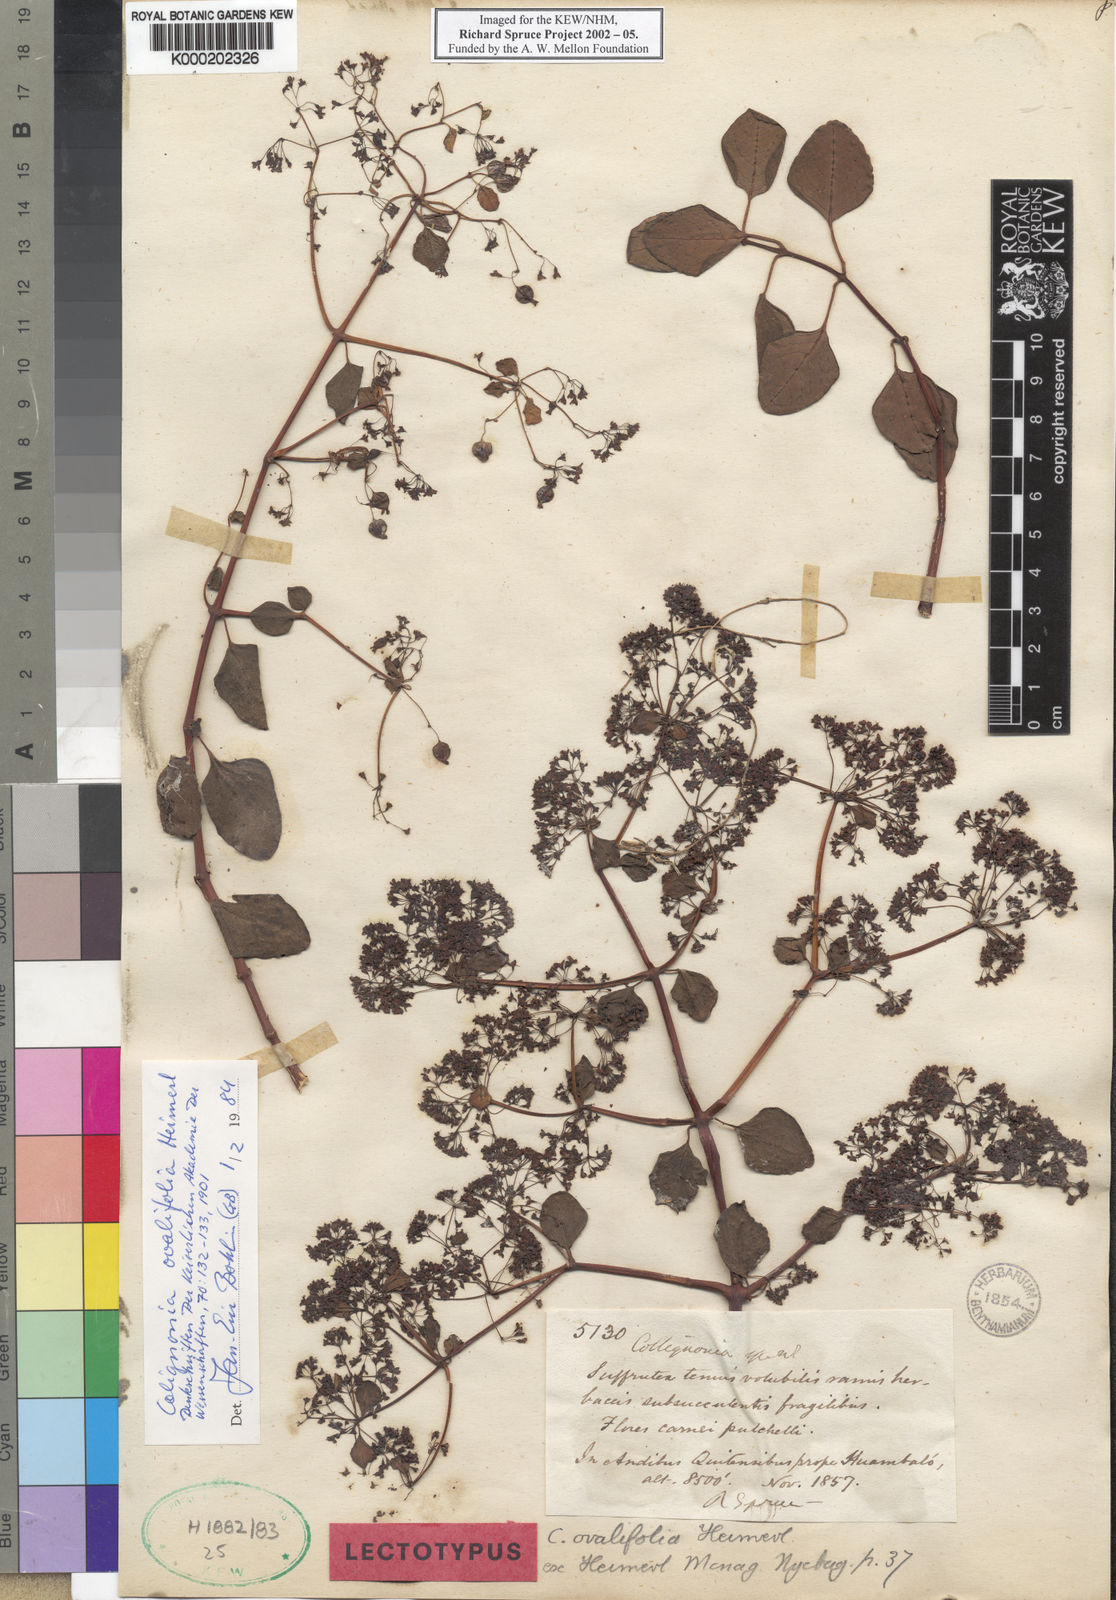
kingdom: Plantae
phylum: Tracheophyta
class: Magnoliopsida
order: Caryophyllales
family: Nyctaginaceae
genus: Colignonia
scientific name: Colignonia ovalifolia
